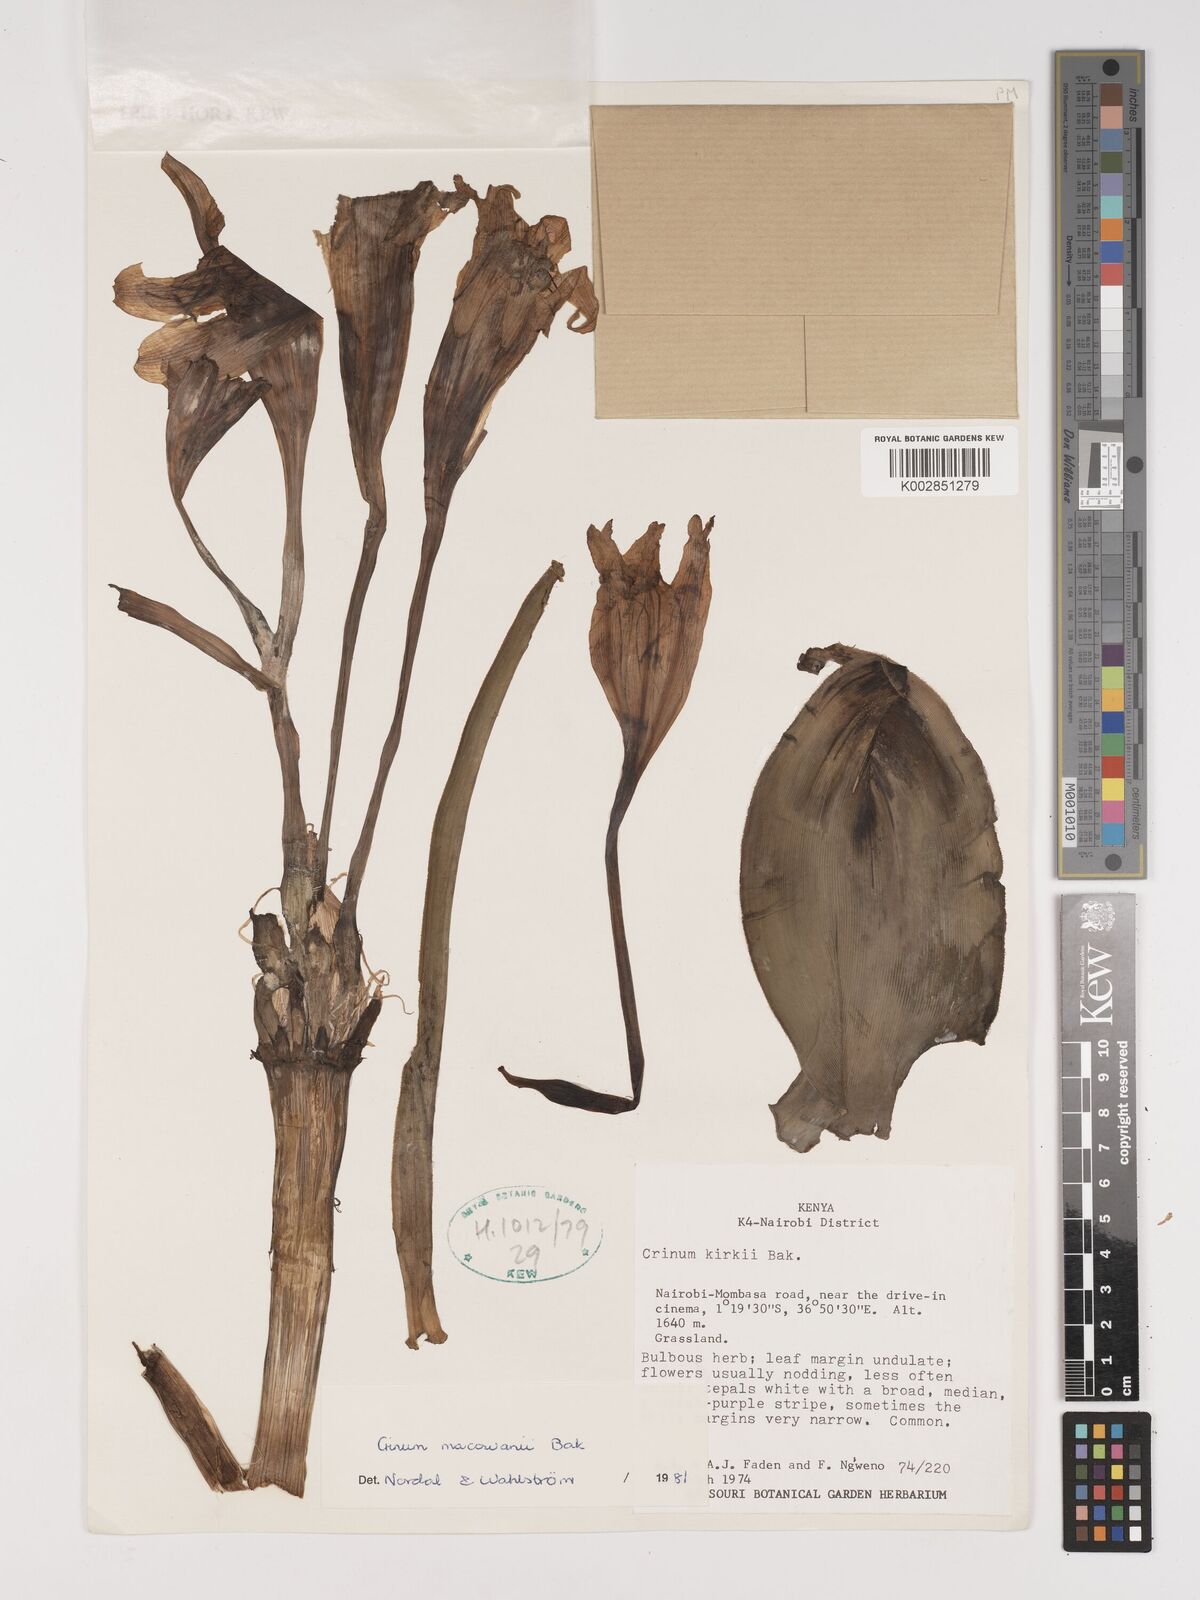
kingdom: Plantae
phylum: Tracheophyta
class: Liliopsida
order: Asparagales
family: Amaryllidaceae
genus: Crinum
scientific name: Crinum macowanii
